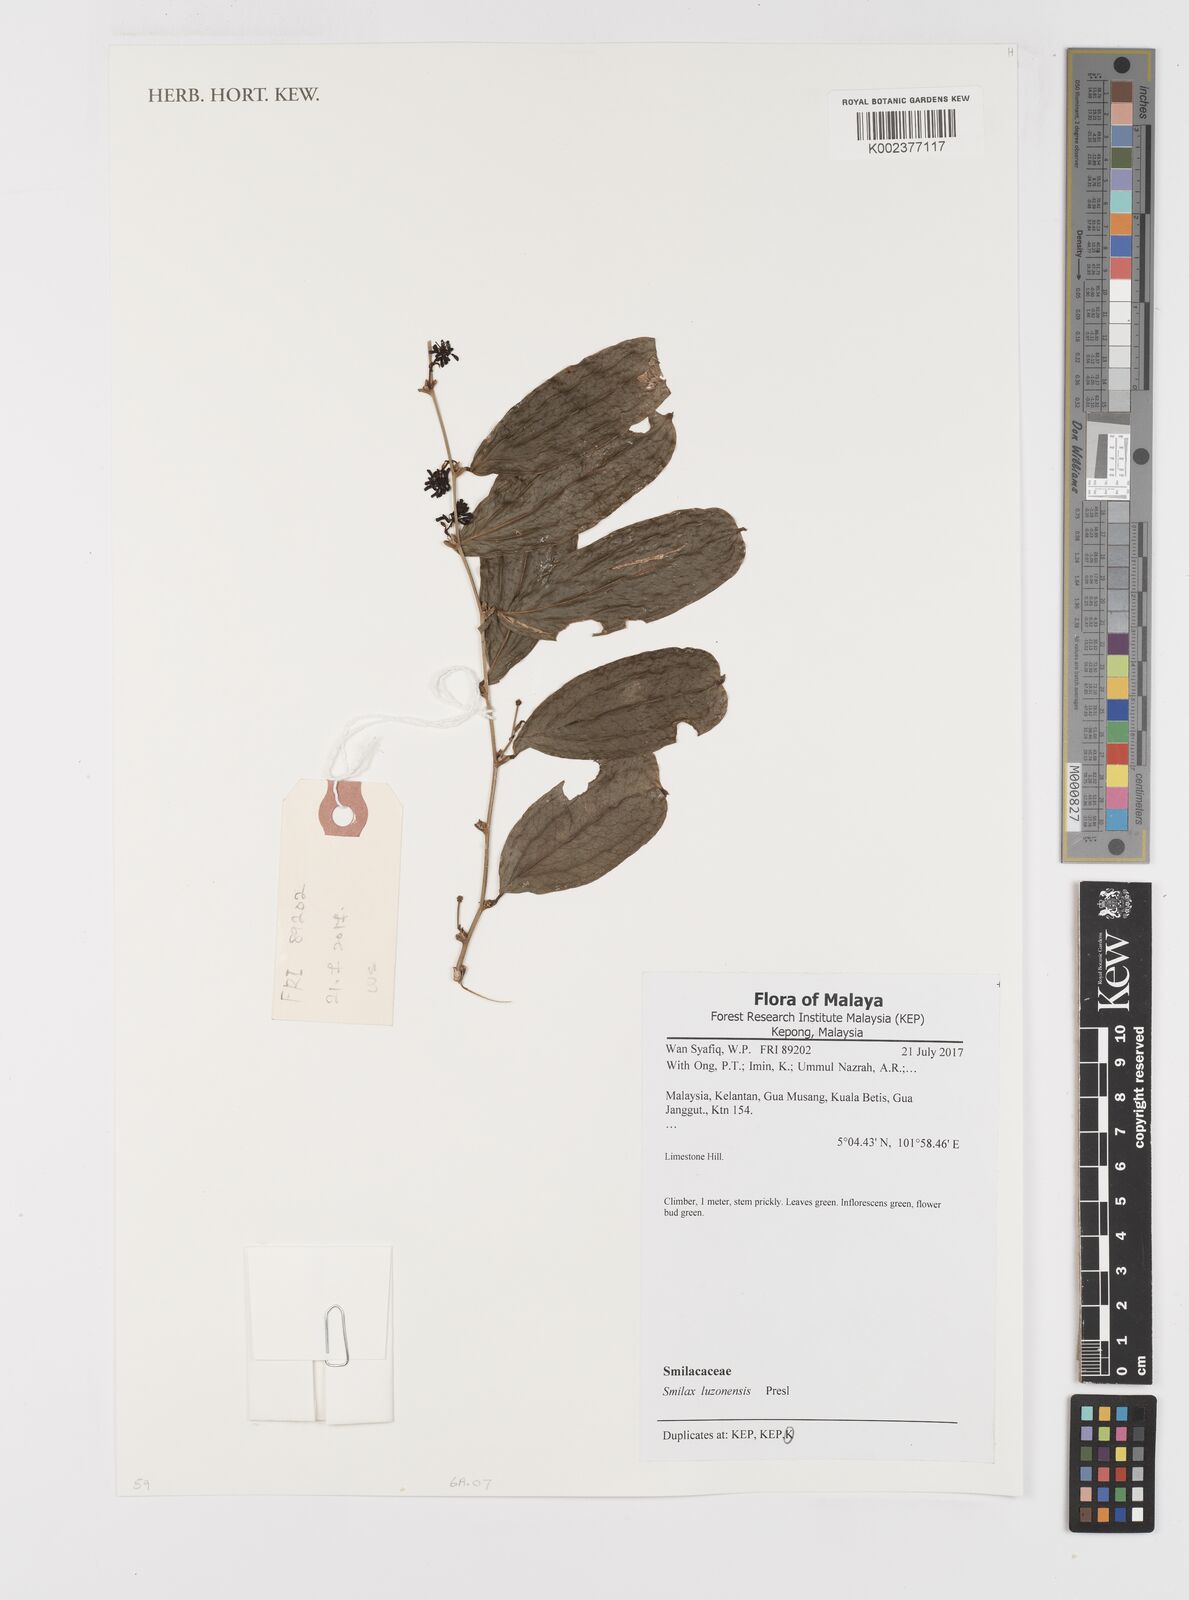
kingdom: Plantae
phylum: Tracheophyta
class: Liliopsida
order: Liliales
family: Smilacaceae
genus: Smilax
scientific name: Smilax luzonensis
